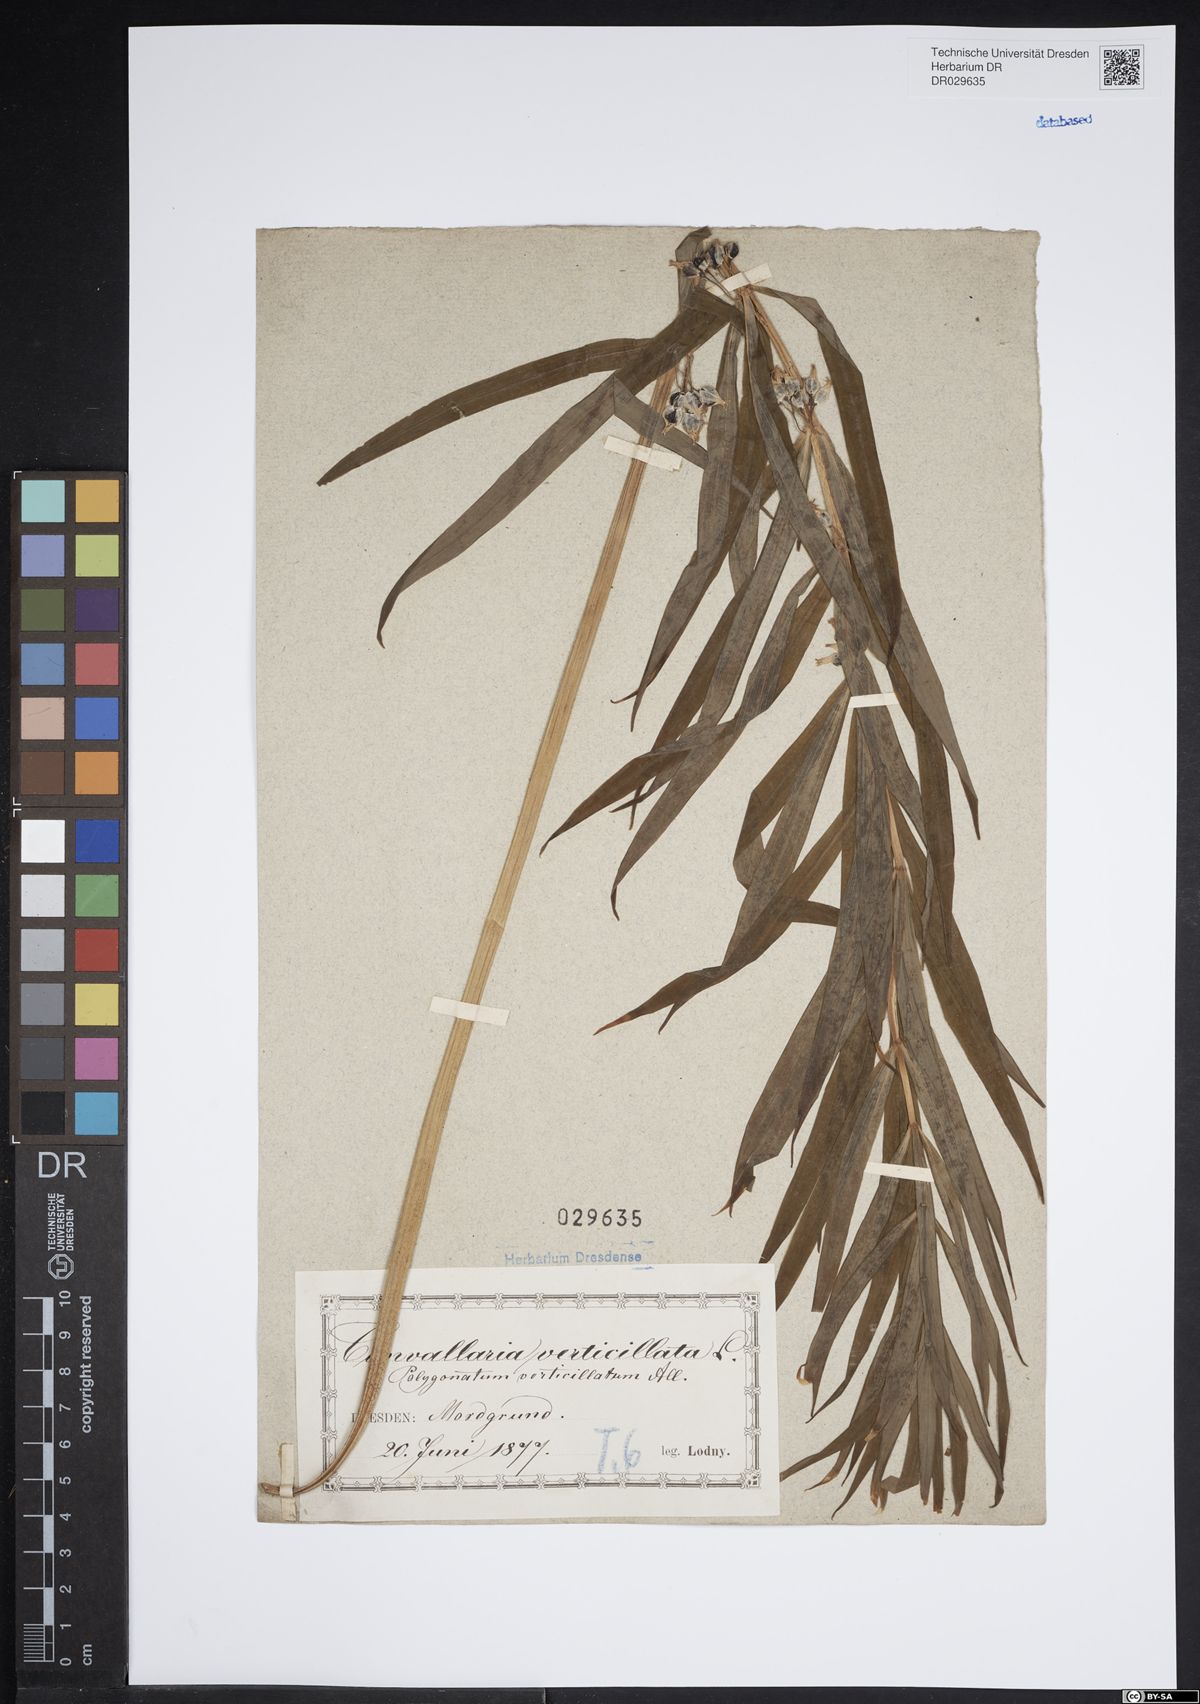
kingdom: Plantae
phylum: Tracheophyta
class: Liliopsida
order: Asparagales
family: Asparagaceae
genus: Polygonatum
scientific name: Polygonatum verticillatum
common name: Whorled solomon's-seal
